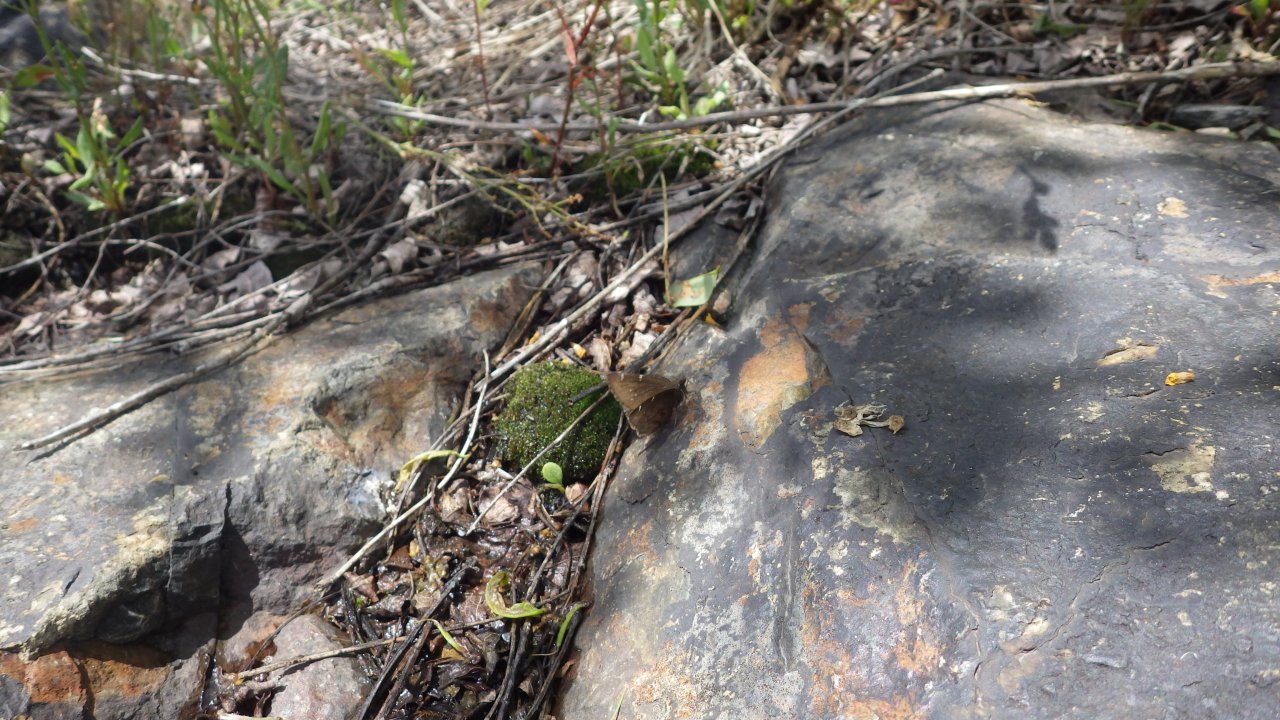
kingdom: Animalia
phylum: Arthropoda
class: Insecta
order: Lepidoptera
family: Hesperiidae
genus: Autochton
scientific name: Autochton
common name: Northern Cloudywing
